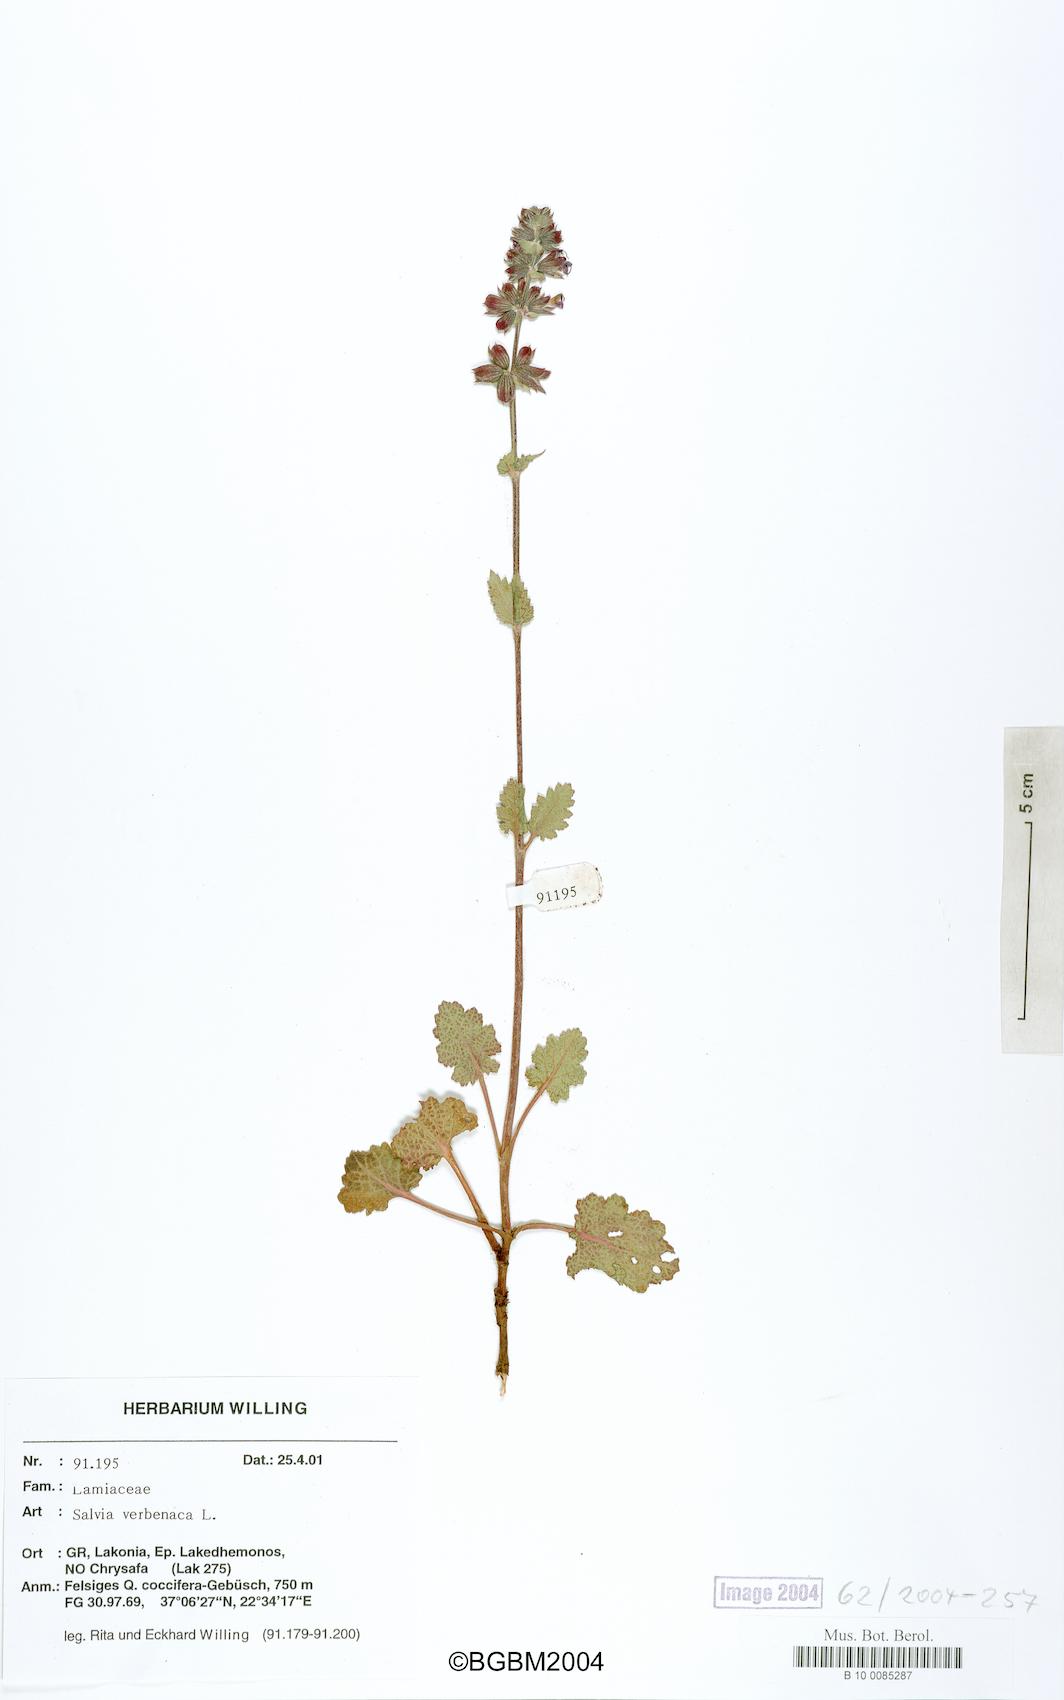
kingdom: Plantae
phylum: Tracheophyta
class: Magnoliopsida
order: Lamiales
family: Lamiaceae
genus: Salvia
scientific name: Salvia verbenaca
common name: Wild clary
